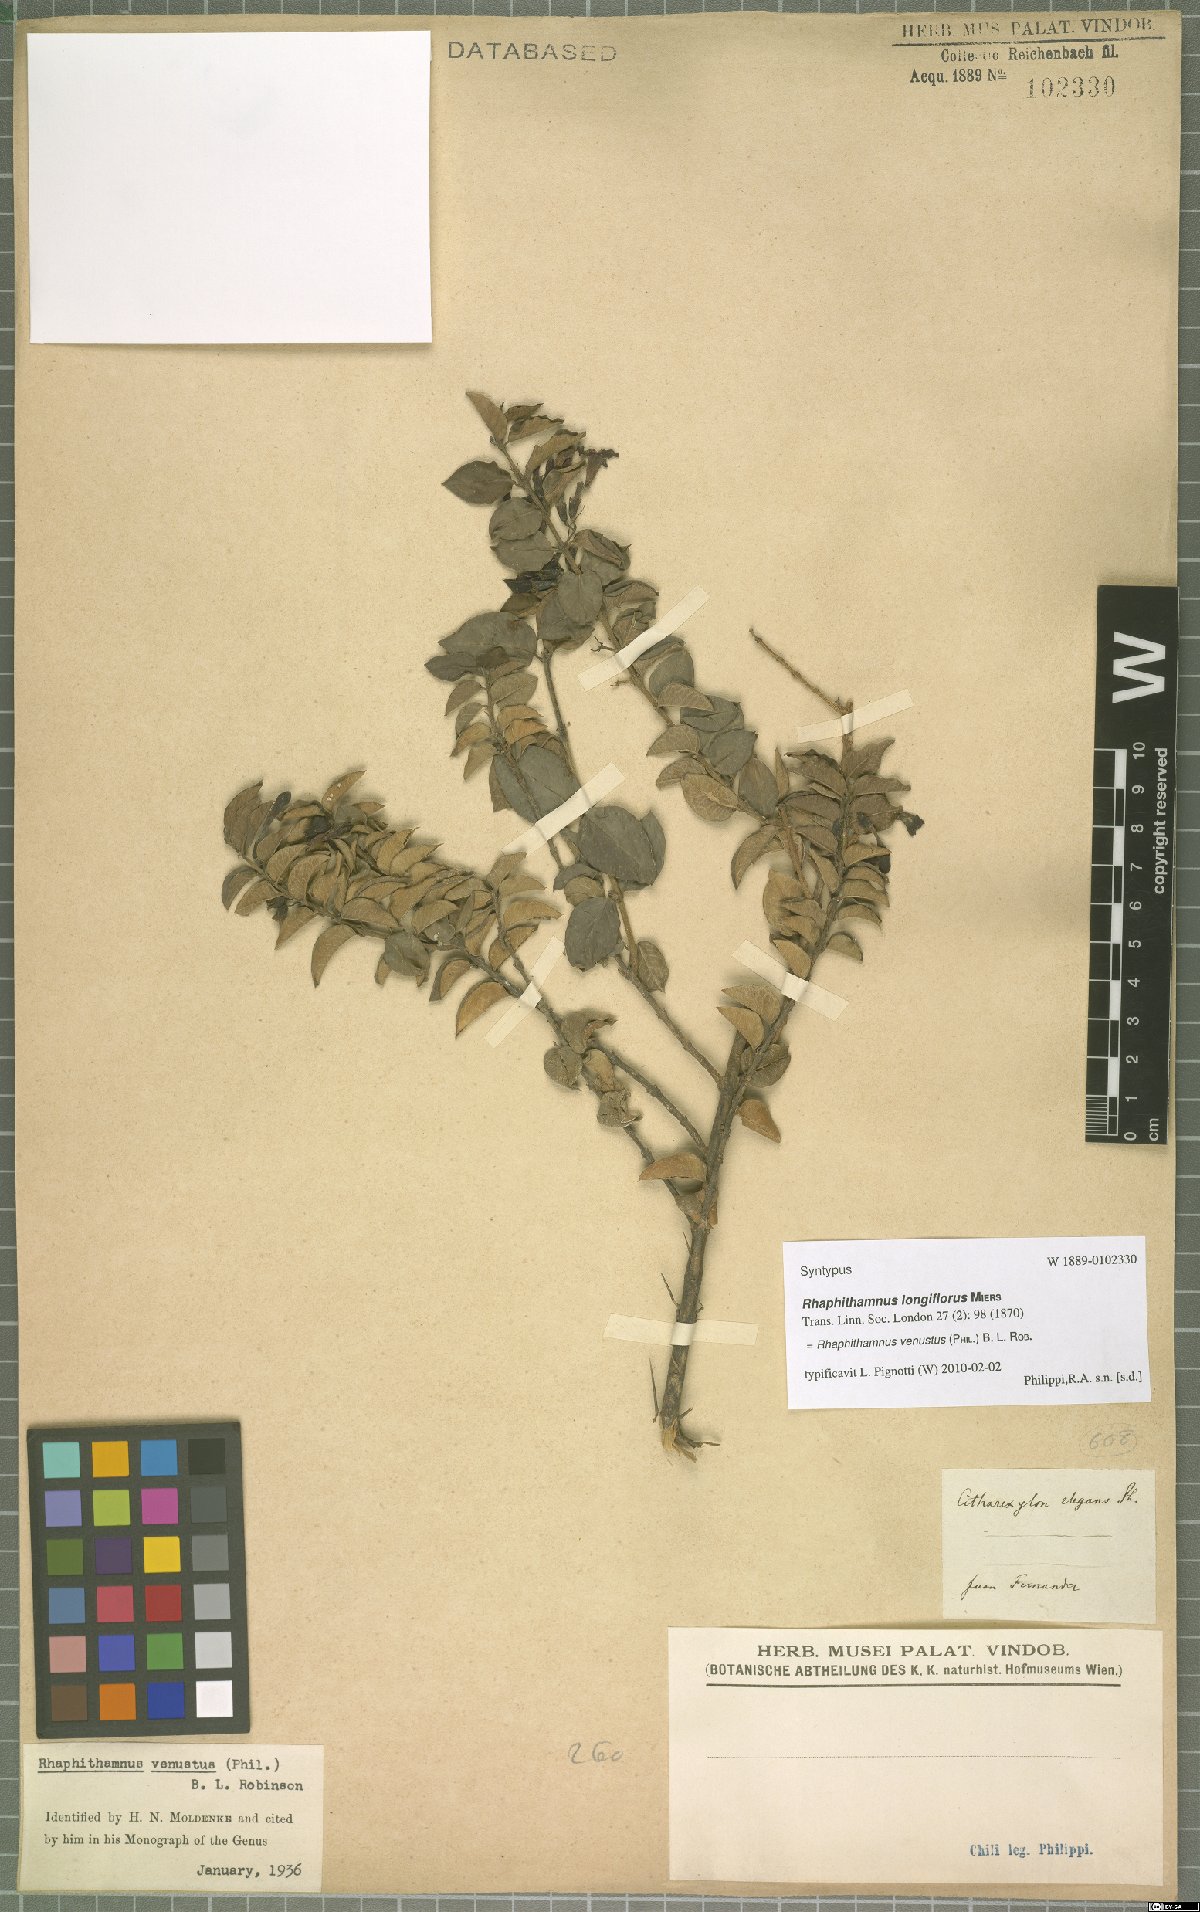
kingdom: Plantae
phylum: Tracheophyta
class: Magnoliopsida
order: Lamiales
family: Verbenaceae
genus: Rhaphithamnus
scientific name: Rhaphithamnus venustus
